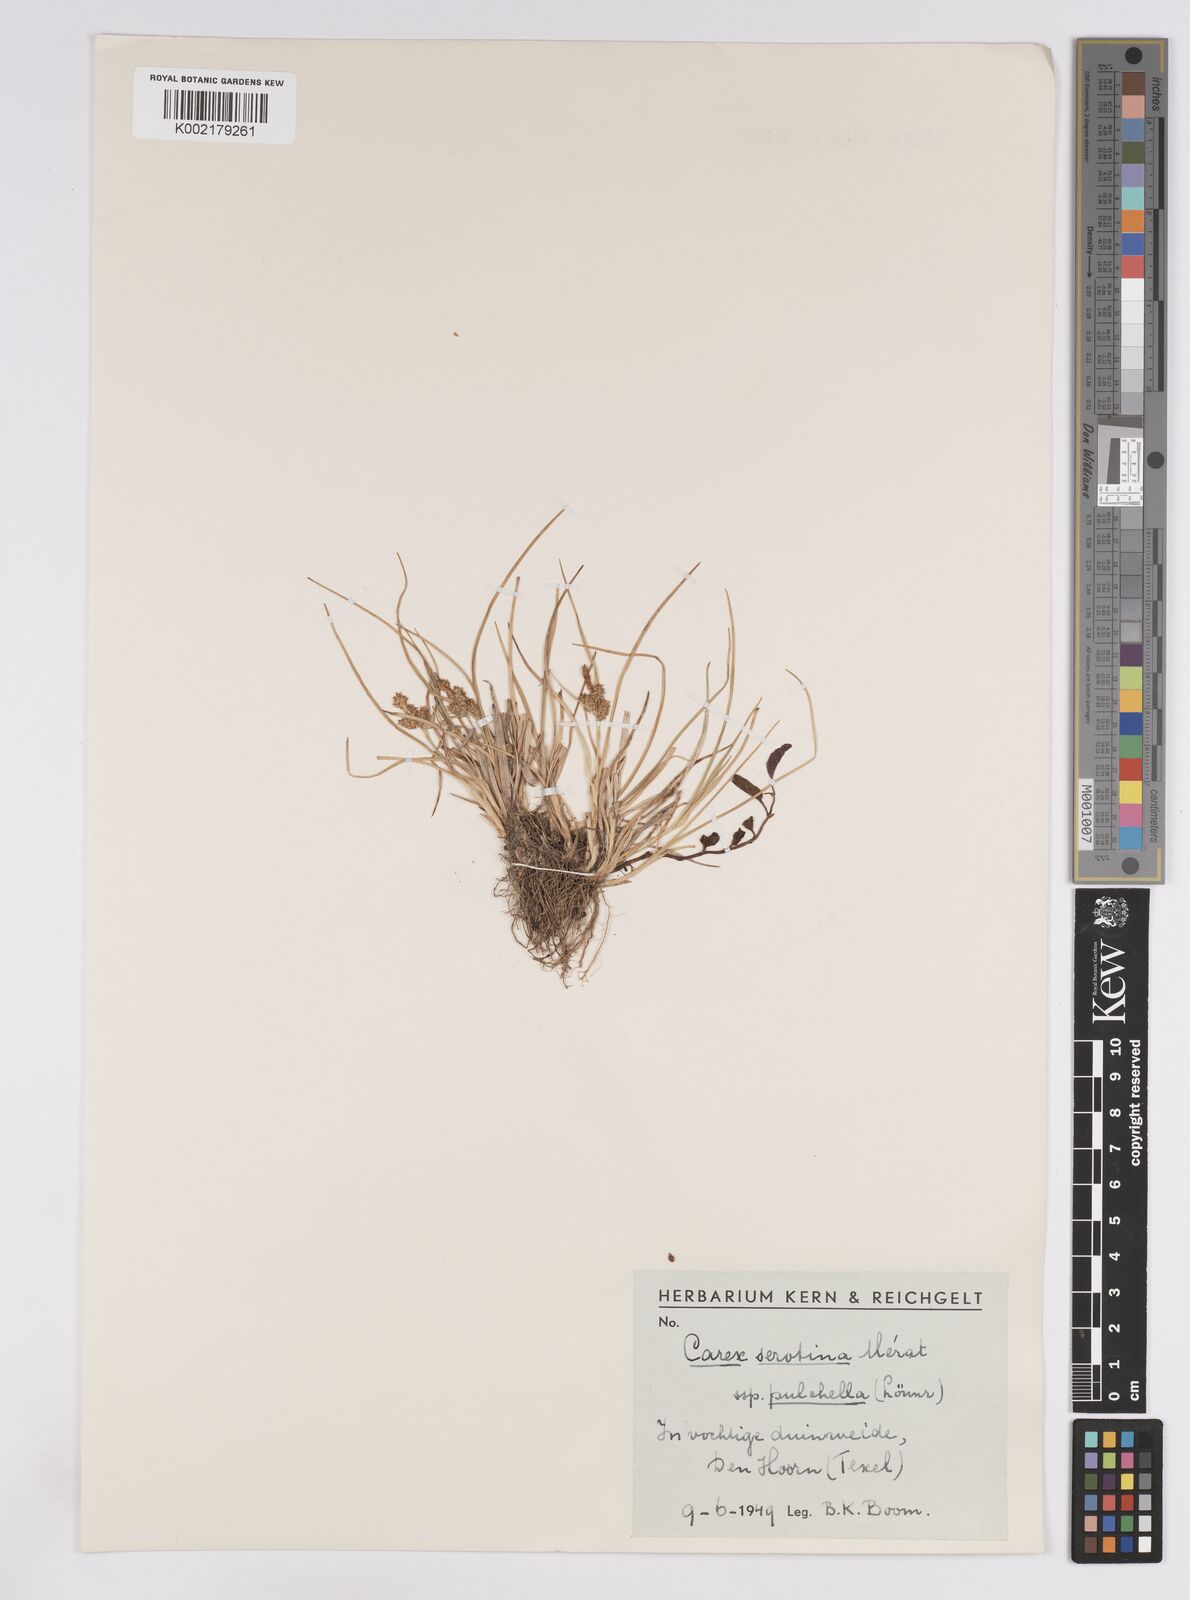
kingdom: Plantae
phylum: Tracheophyta
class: Liliopsida
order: Poales
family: Cyperaceae
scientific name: Cyperaceae
